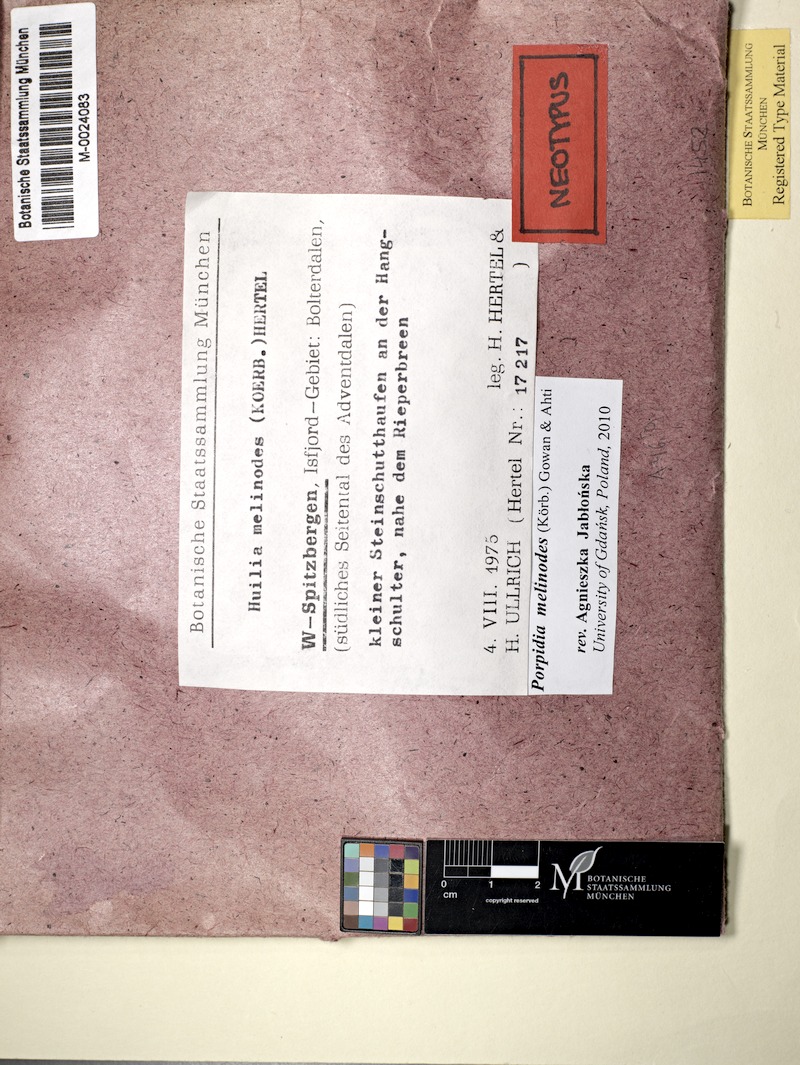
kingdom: Fungi
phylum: Ascomycota
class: Lecanoromycetes
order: Lecideales
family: Lecideaceae
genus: Porpidia
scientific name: Porpidia melinodes
